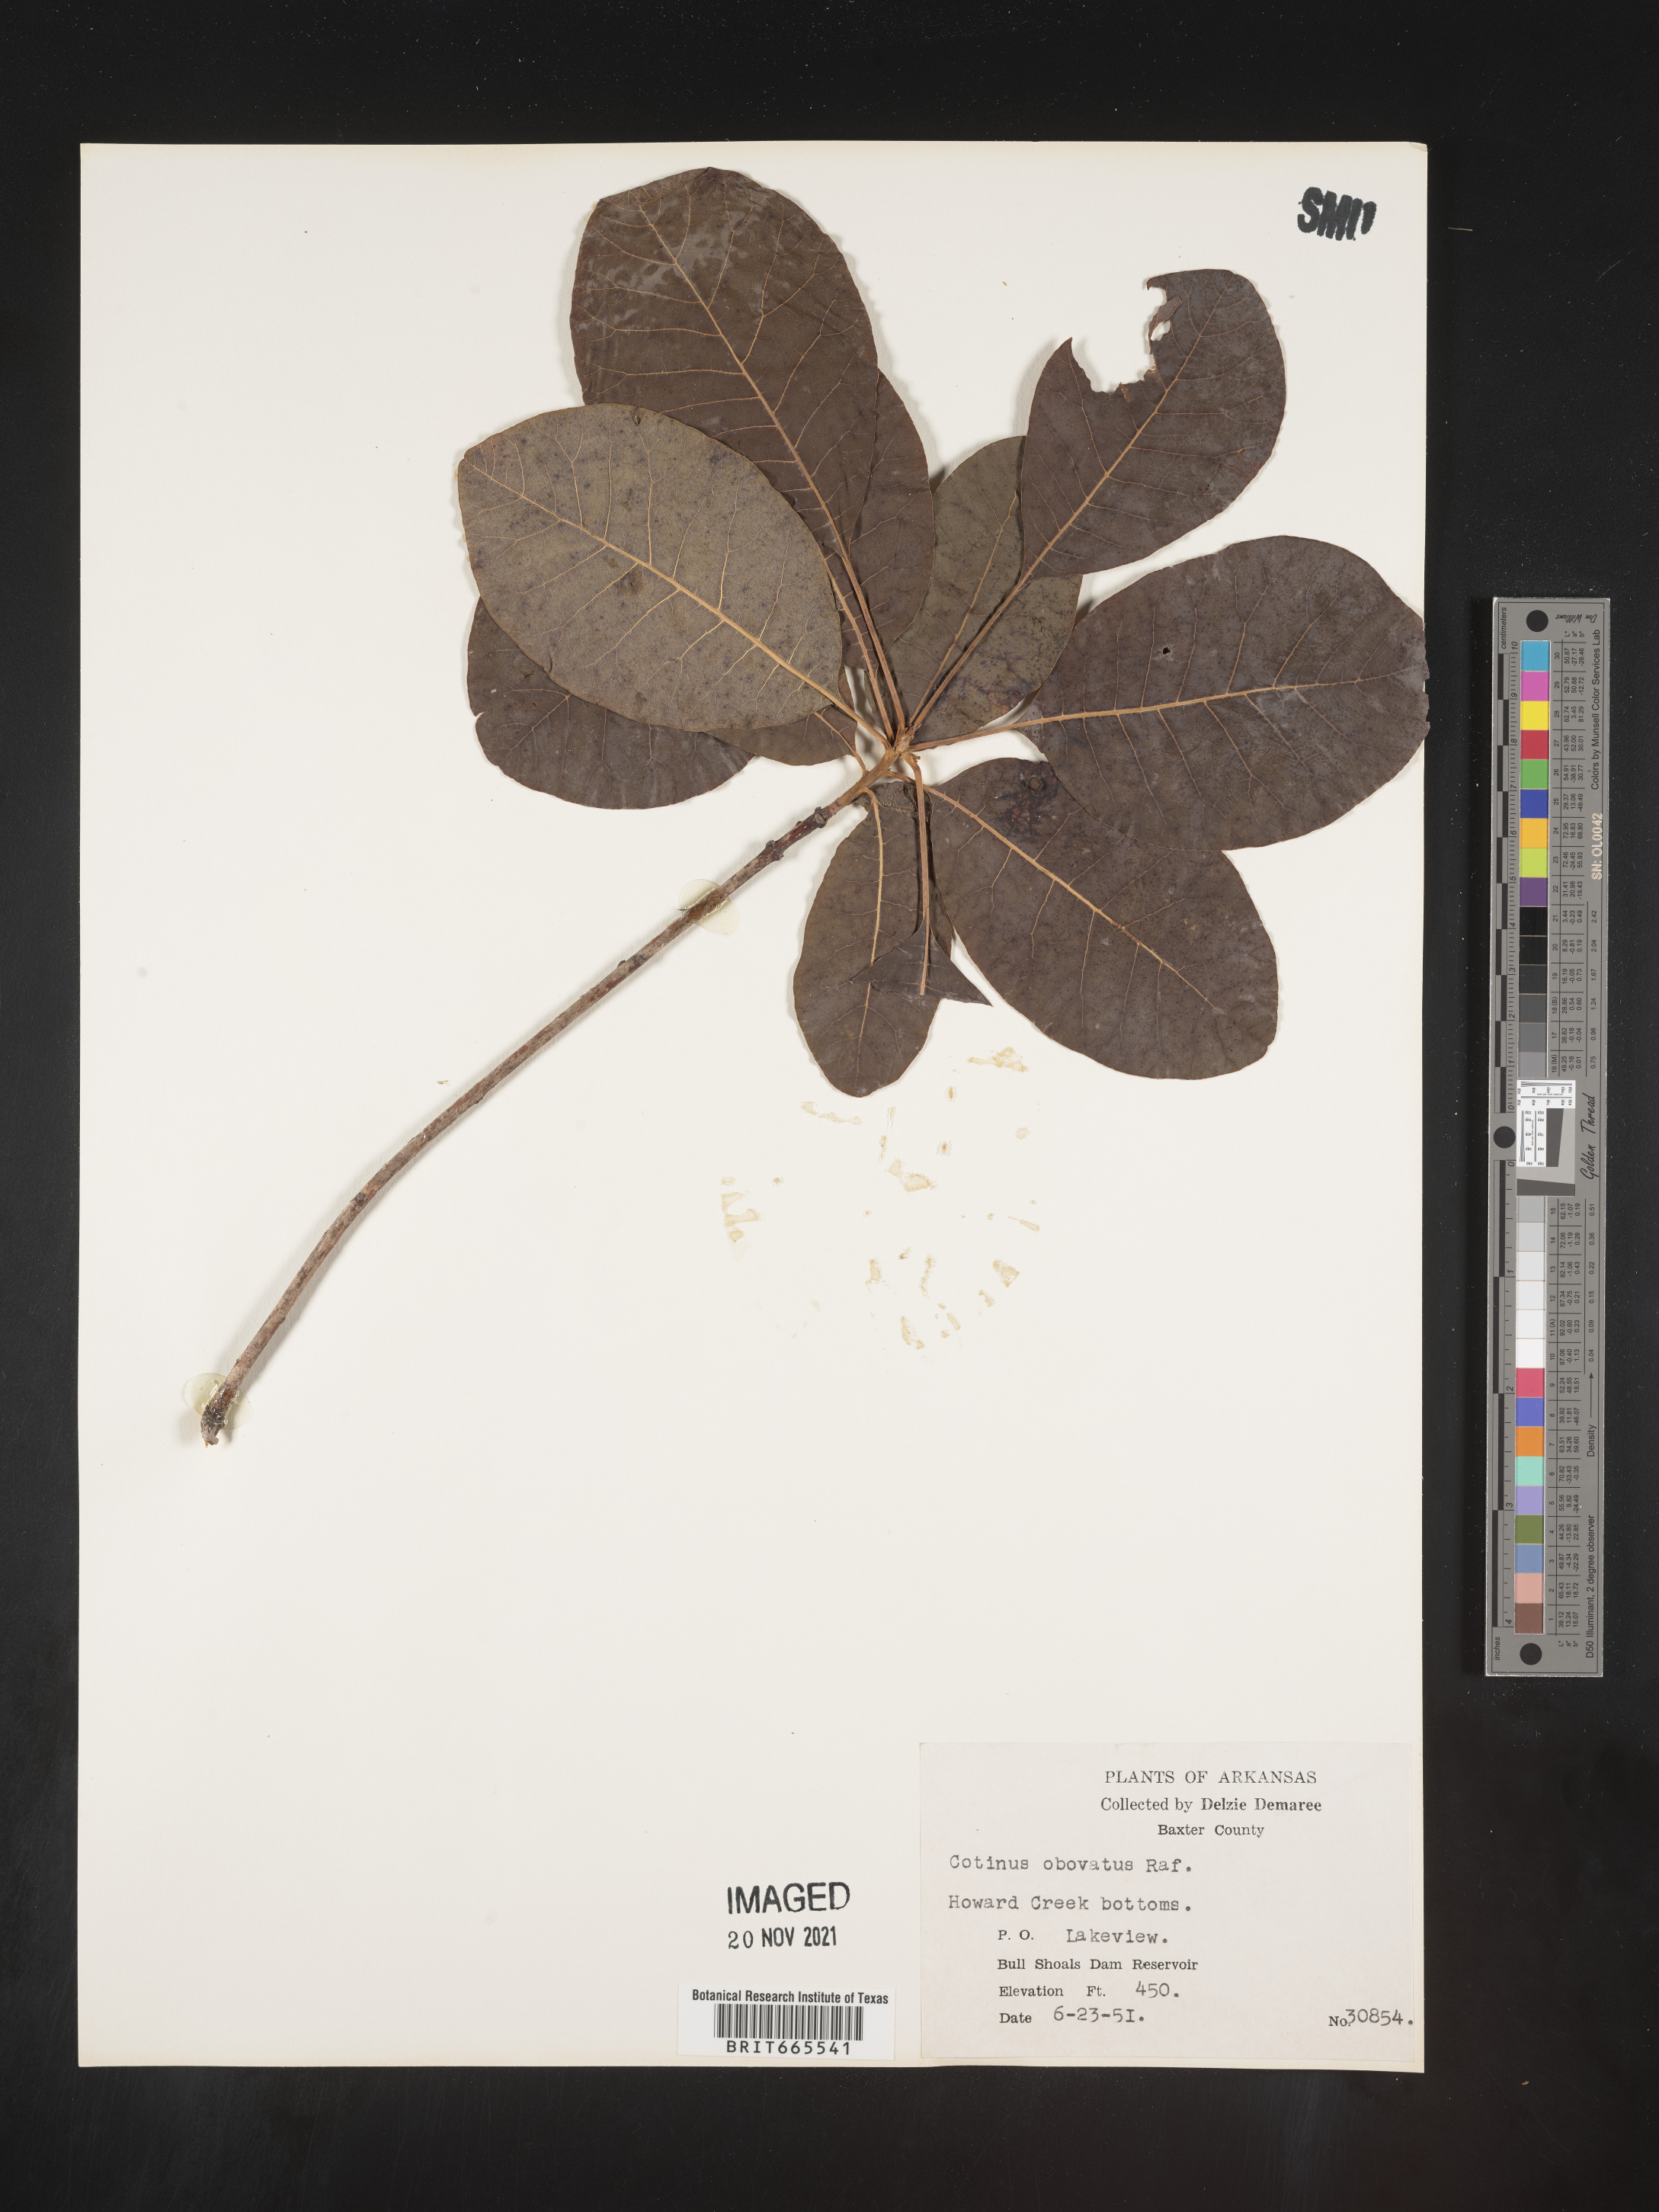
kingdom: Plantae
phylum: Tracheophyta
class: Magnoliopsida
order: Sapindales
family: Anacardiaceae
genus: Cotinus
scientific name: Cotinus obovatus
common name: Chittamwood
